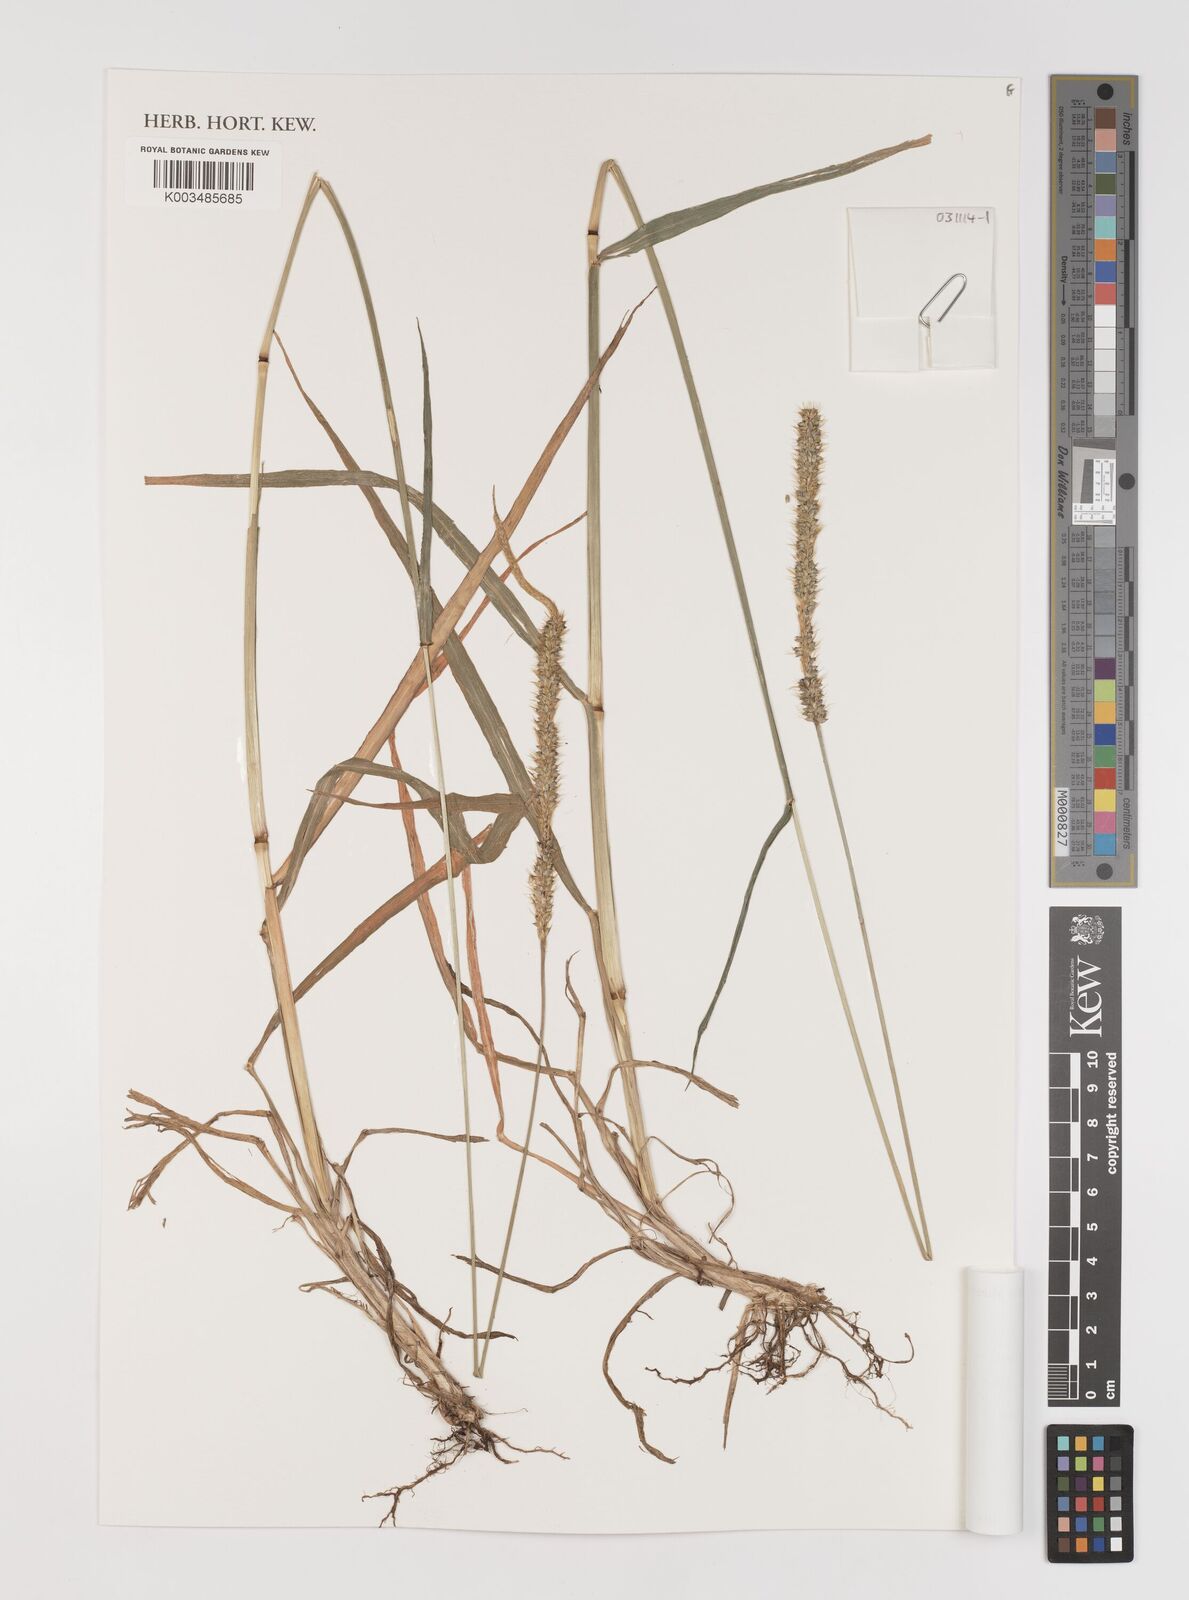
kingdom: Plantae
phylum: Tracheophyta
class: Liliopsida
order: Poales
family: Poaceae
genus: Setaria
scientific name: Setaria sphacelata
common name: African bristlegrass
